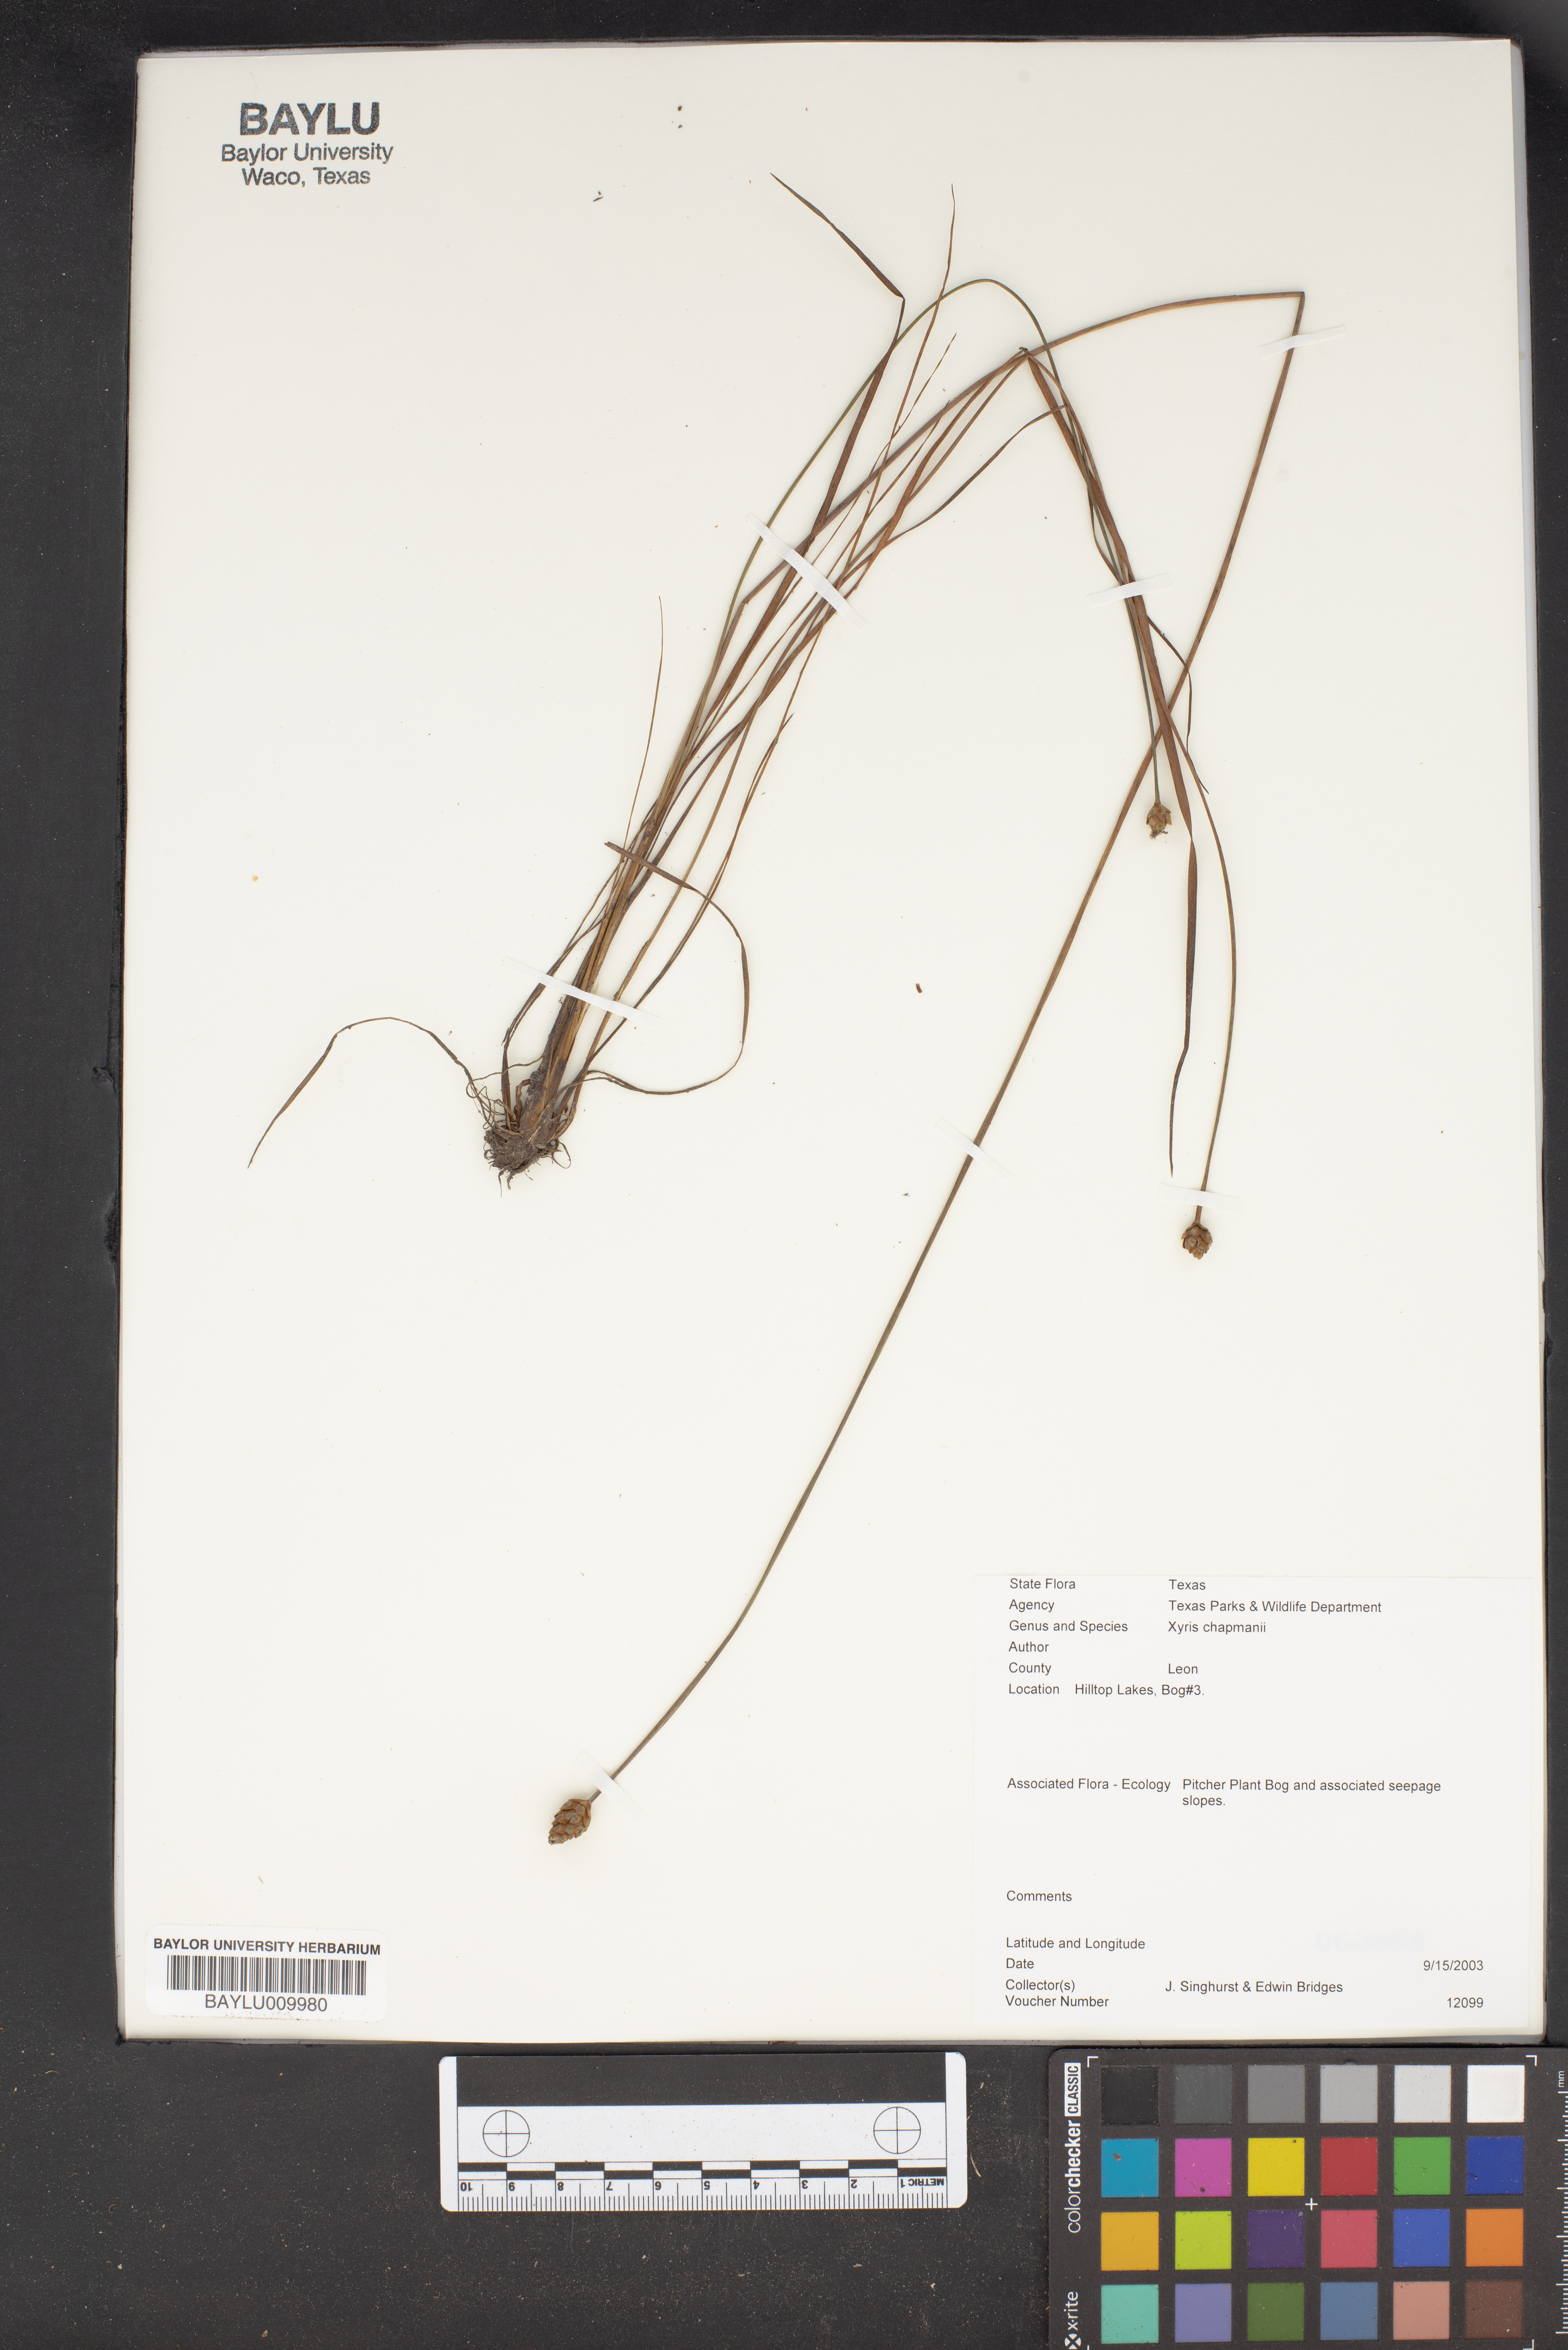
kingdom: Plantae
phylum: Tracheophyta
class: Liliopsida
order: Poales
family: Xyridaceae
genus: Xyris
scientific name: Xyris chapmanii
